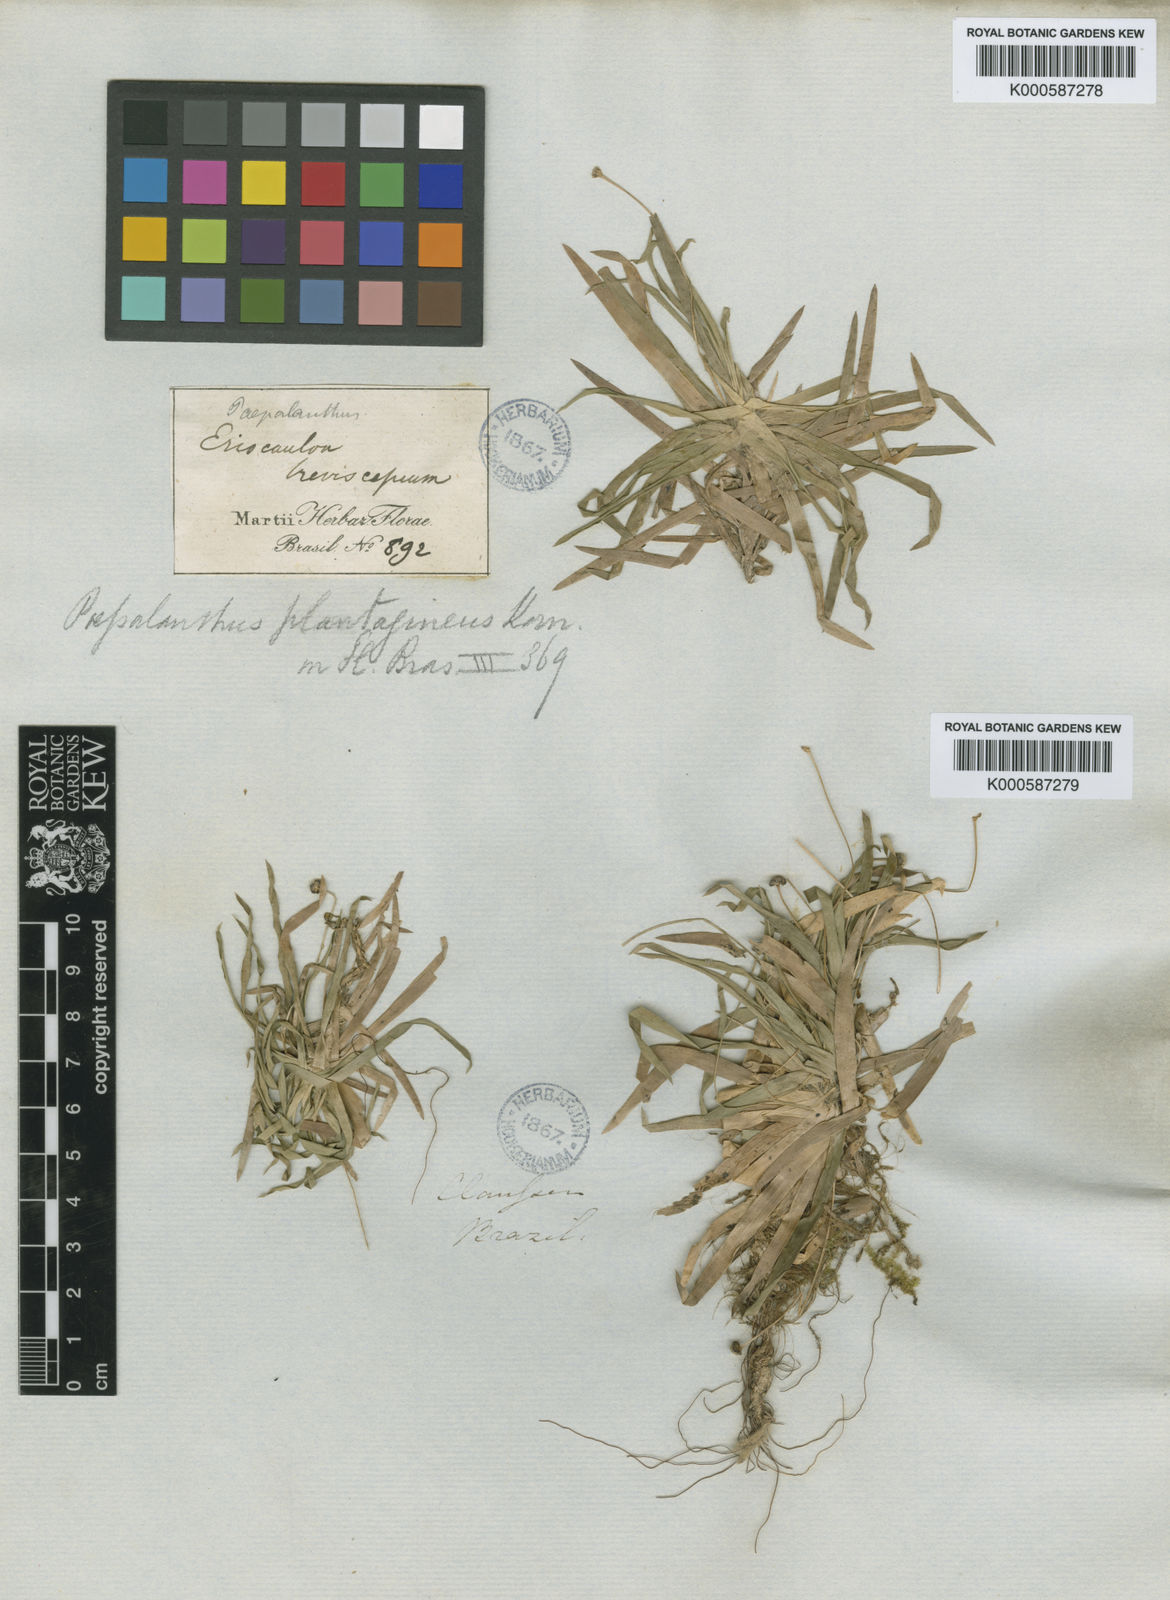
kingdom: Plantae
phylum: Tracheophyta
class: Liliopsida
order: Poales
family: Eriocaulaceae
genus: Paepalanthus
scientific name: Paepalanthus
